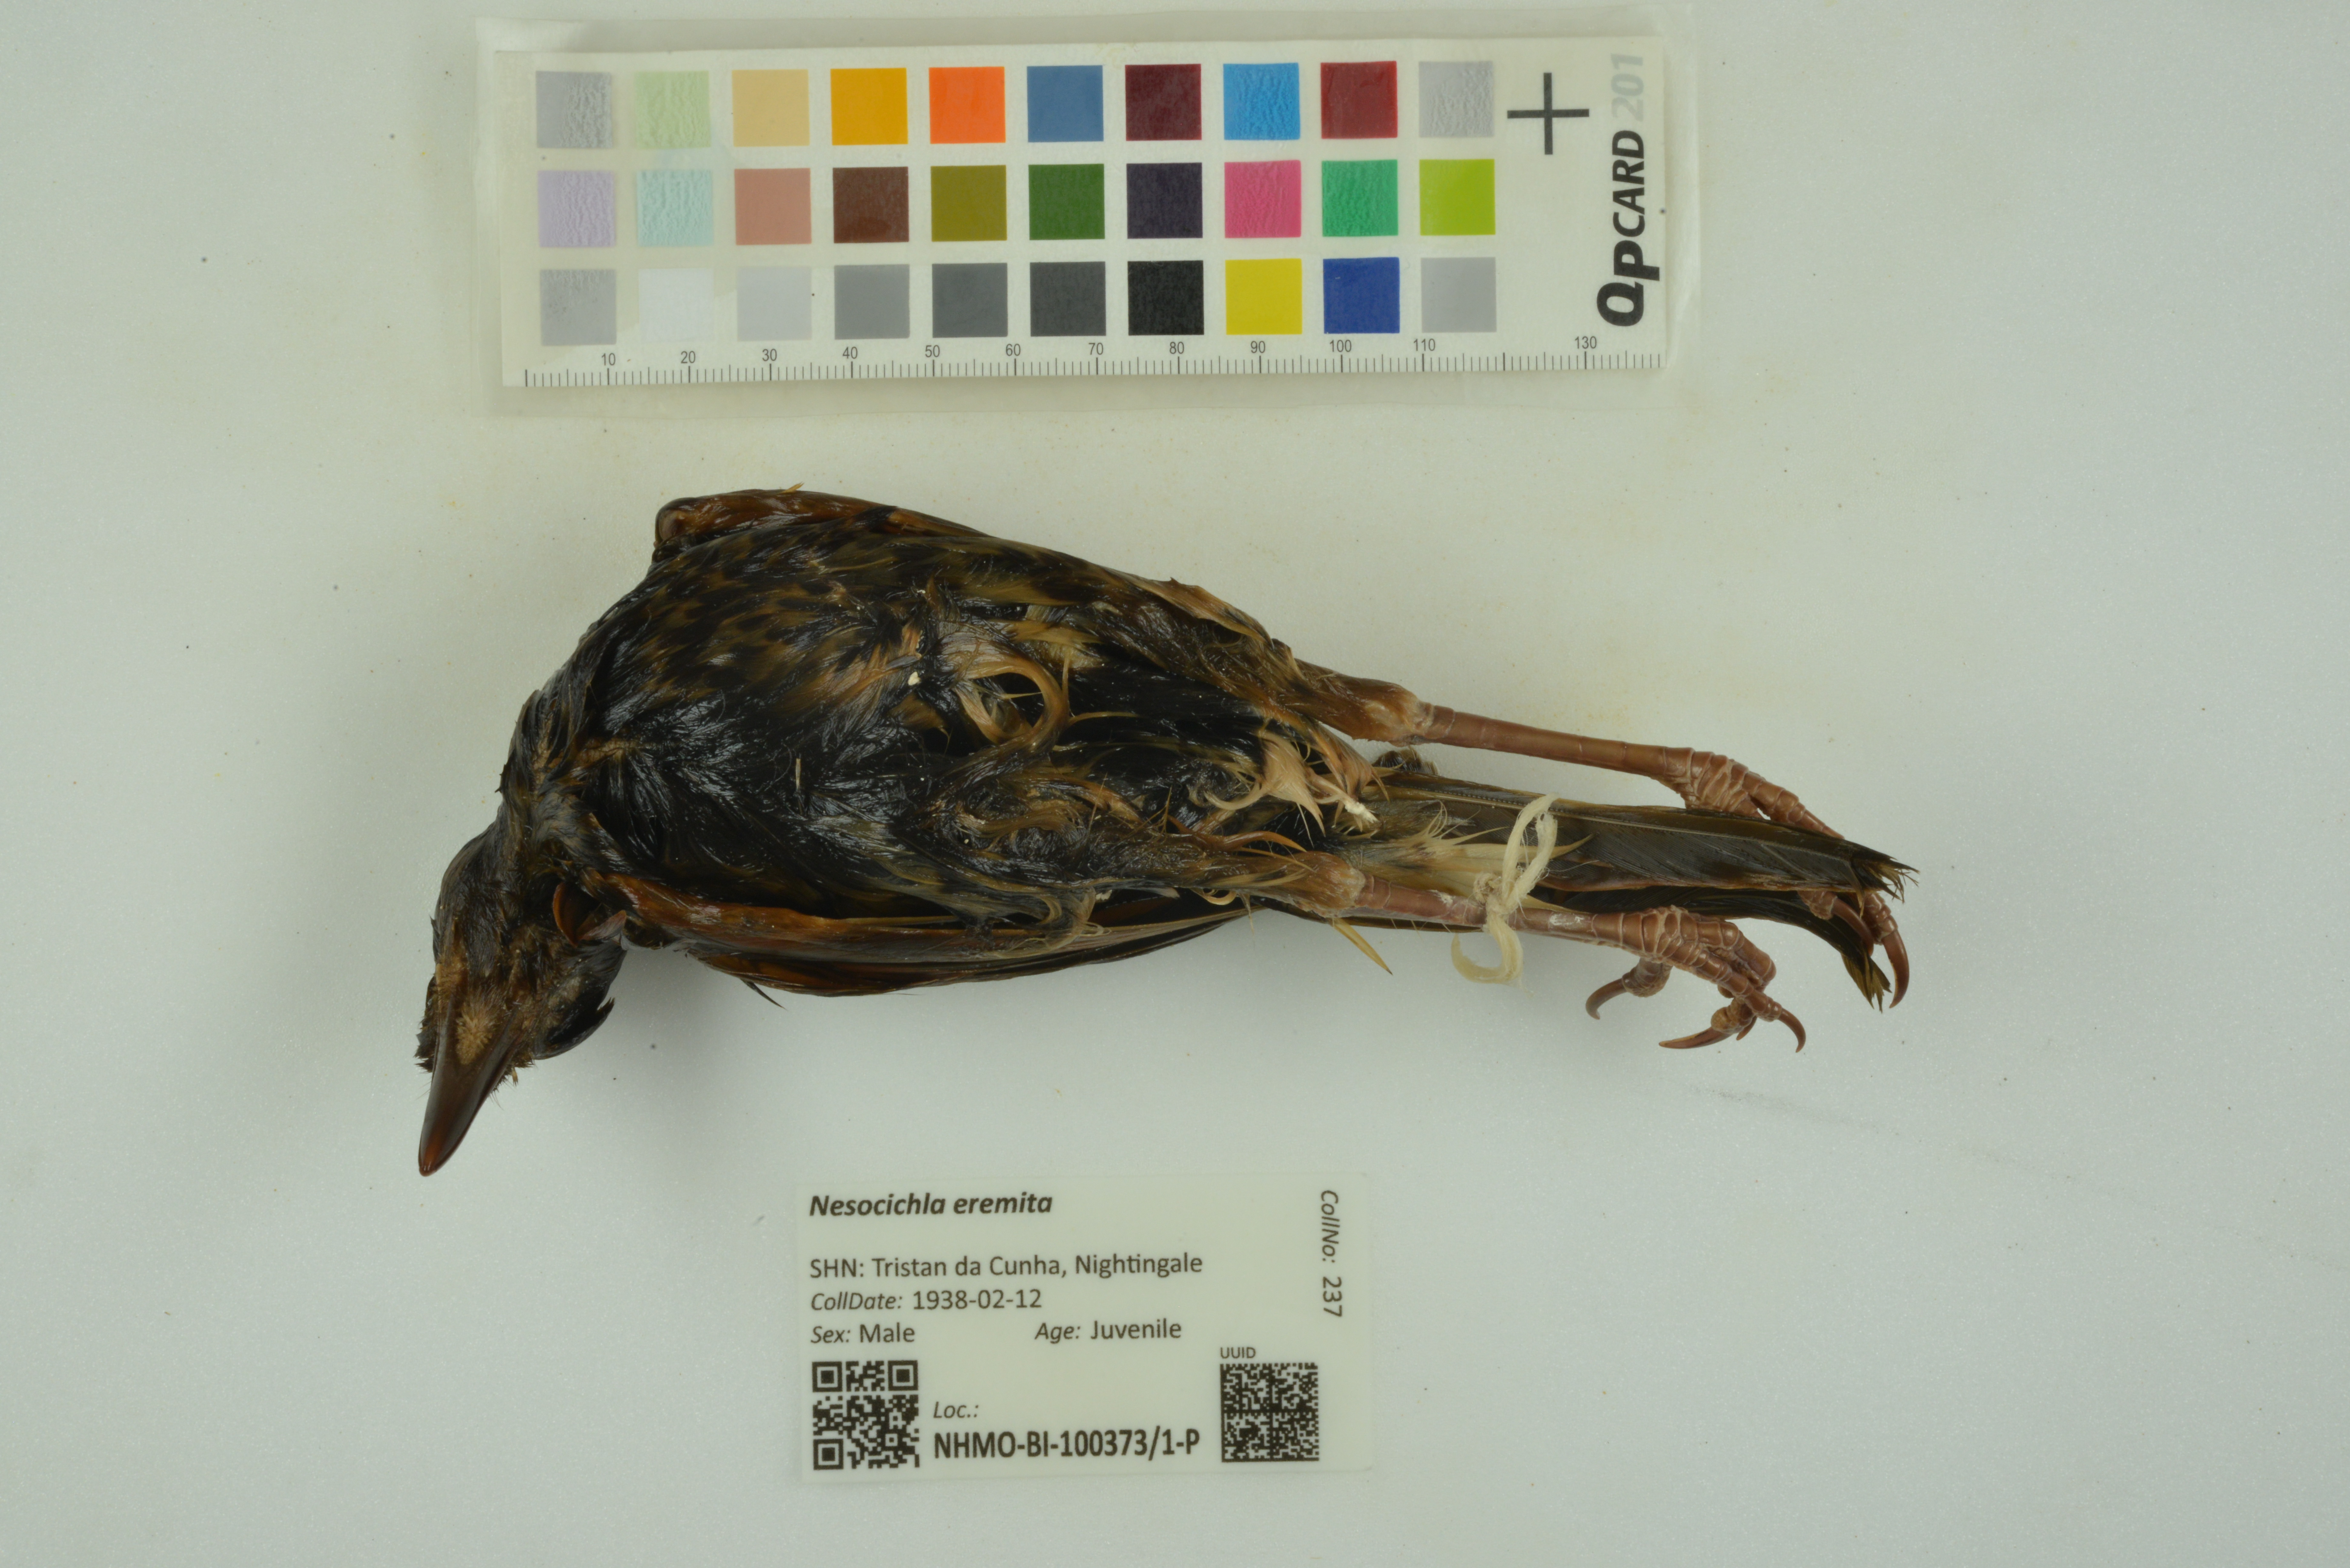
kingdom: Animalia
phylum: Chordata
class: Aves
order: Passeriformes
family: Turdidae
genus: Nesocichla
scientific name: Nesocichla eremita
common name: Tristan thrush
